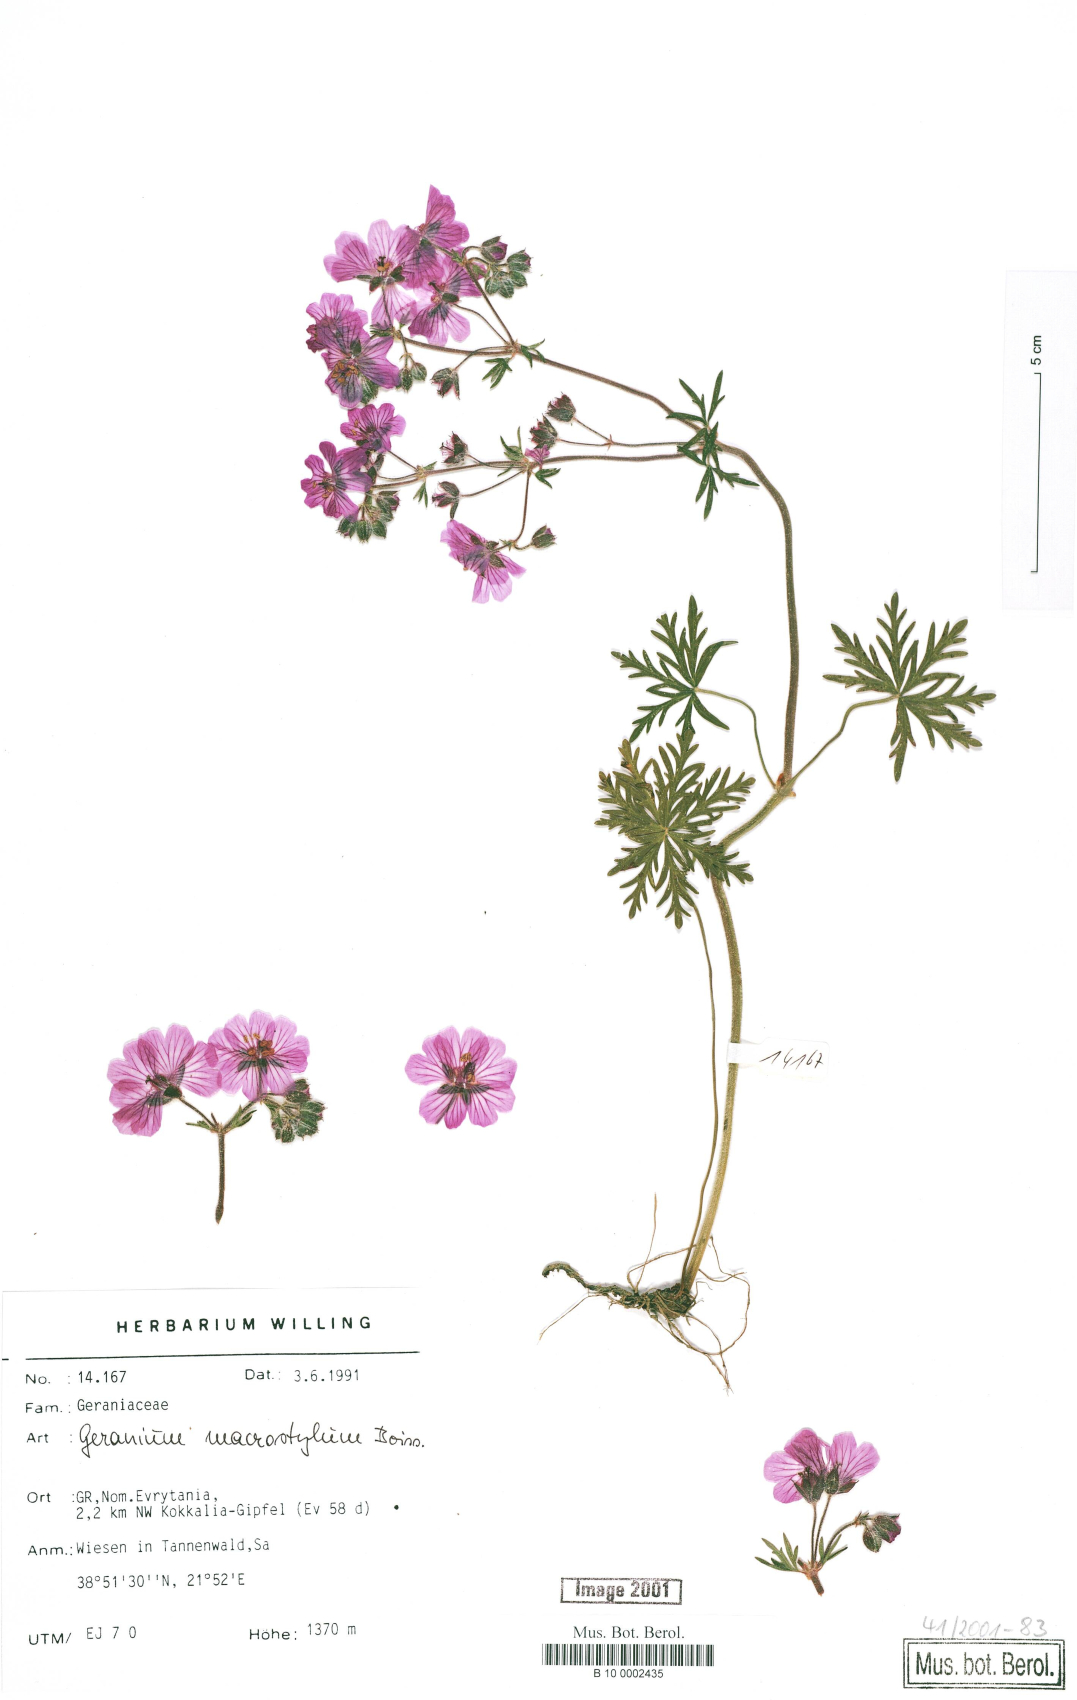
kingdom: Plantae
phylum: Tracheophyta
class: Magnoliopsida
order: Geraniales
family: Geraniaceae
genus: Geranium
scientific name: Geranium macrostylum
